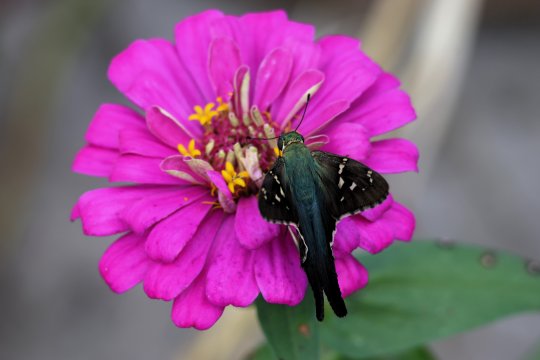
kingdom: Animalia
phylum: Arthropoda
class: Insecta
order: Lepidoptera
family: Hesperiidae
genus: Urbanus
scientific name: Urbanus proteus
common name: Long-tailed Skipper
